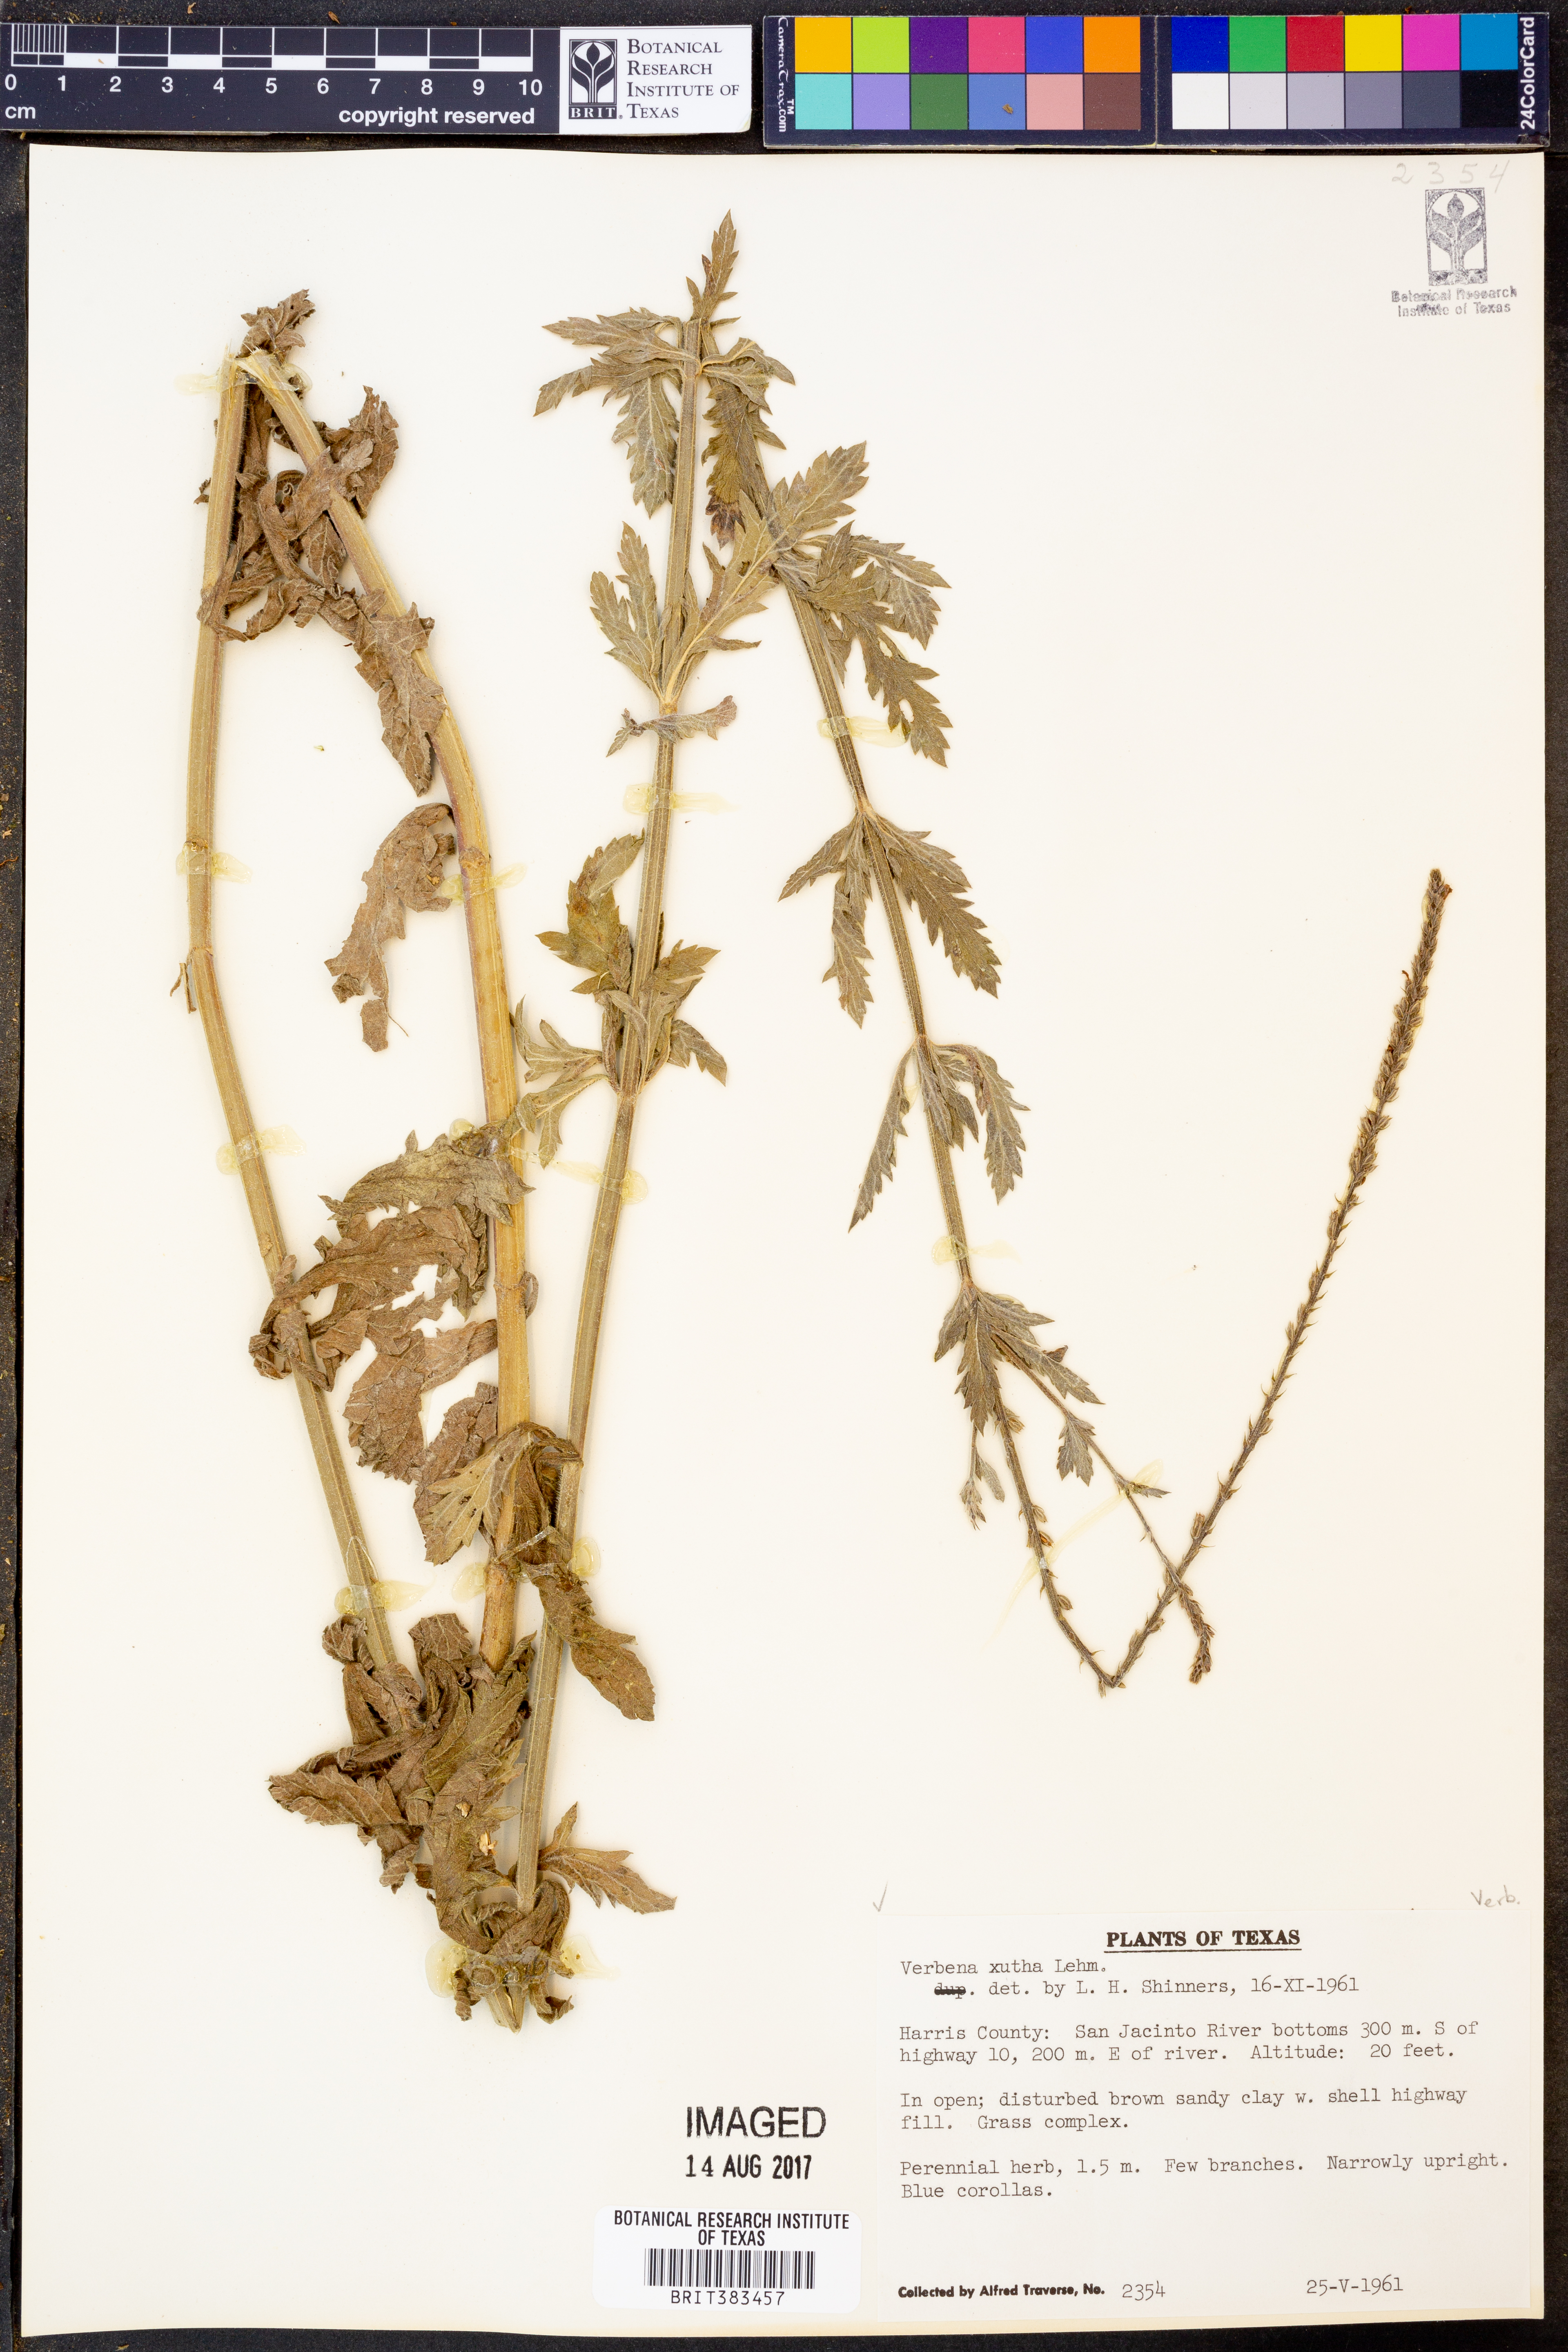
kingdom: Plantae
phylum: Tracheophyta
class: Magnoliopsida
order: Lamiales
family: Verbenaceae
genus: Verbena
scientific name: Verbena xutha
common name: Gulf vervain
